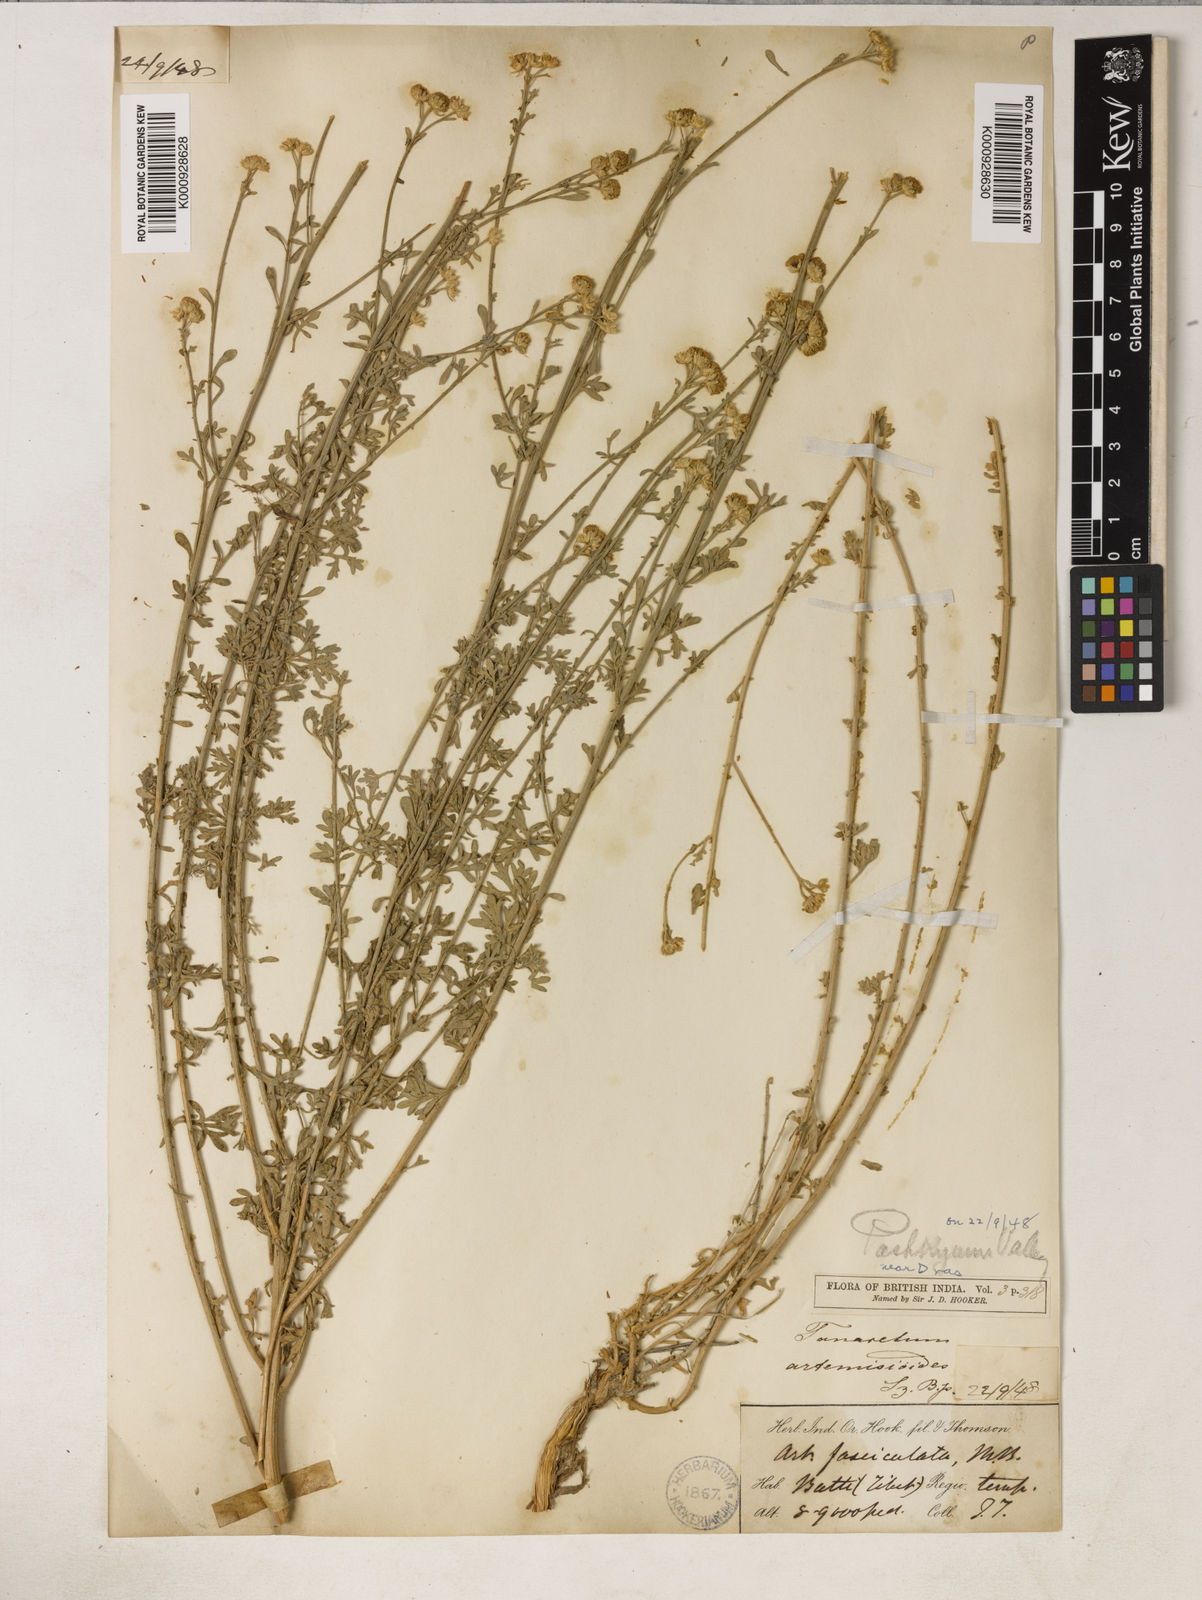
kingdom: Plantae
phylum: Tracheophyta
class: Magnoliopsida
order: Asterales
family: Asteraceae
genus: Tanacetum
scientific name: Tanacetum artemisioides
